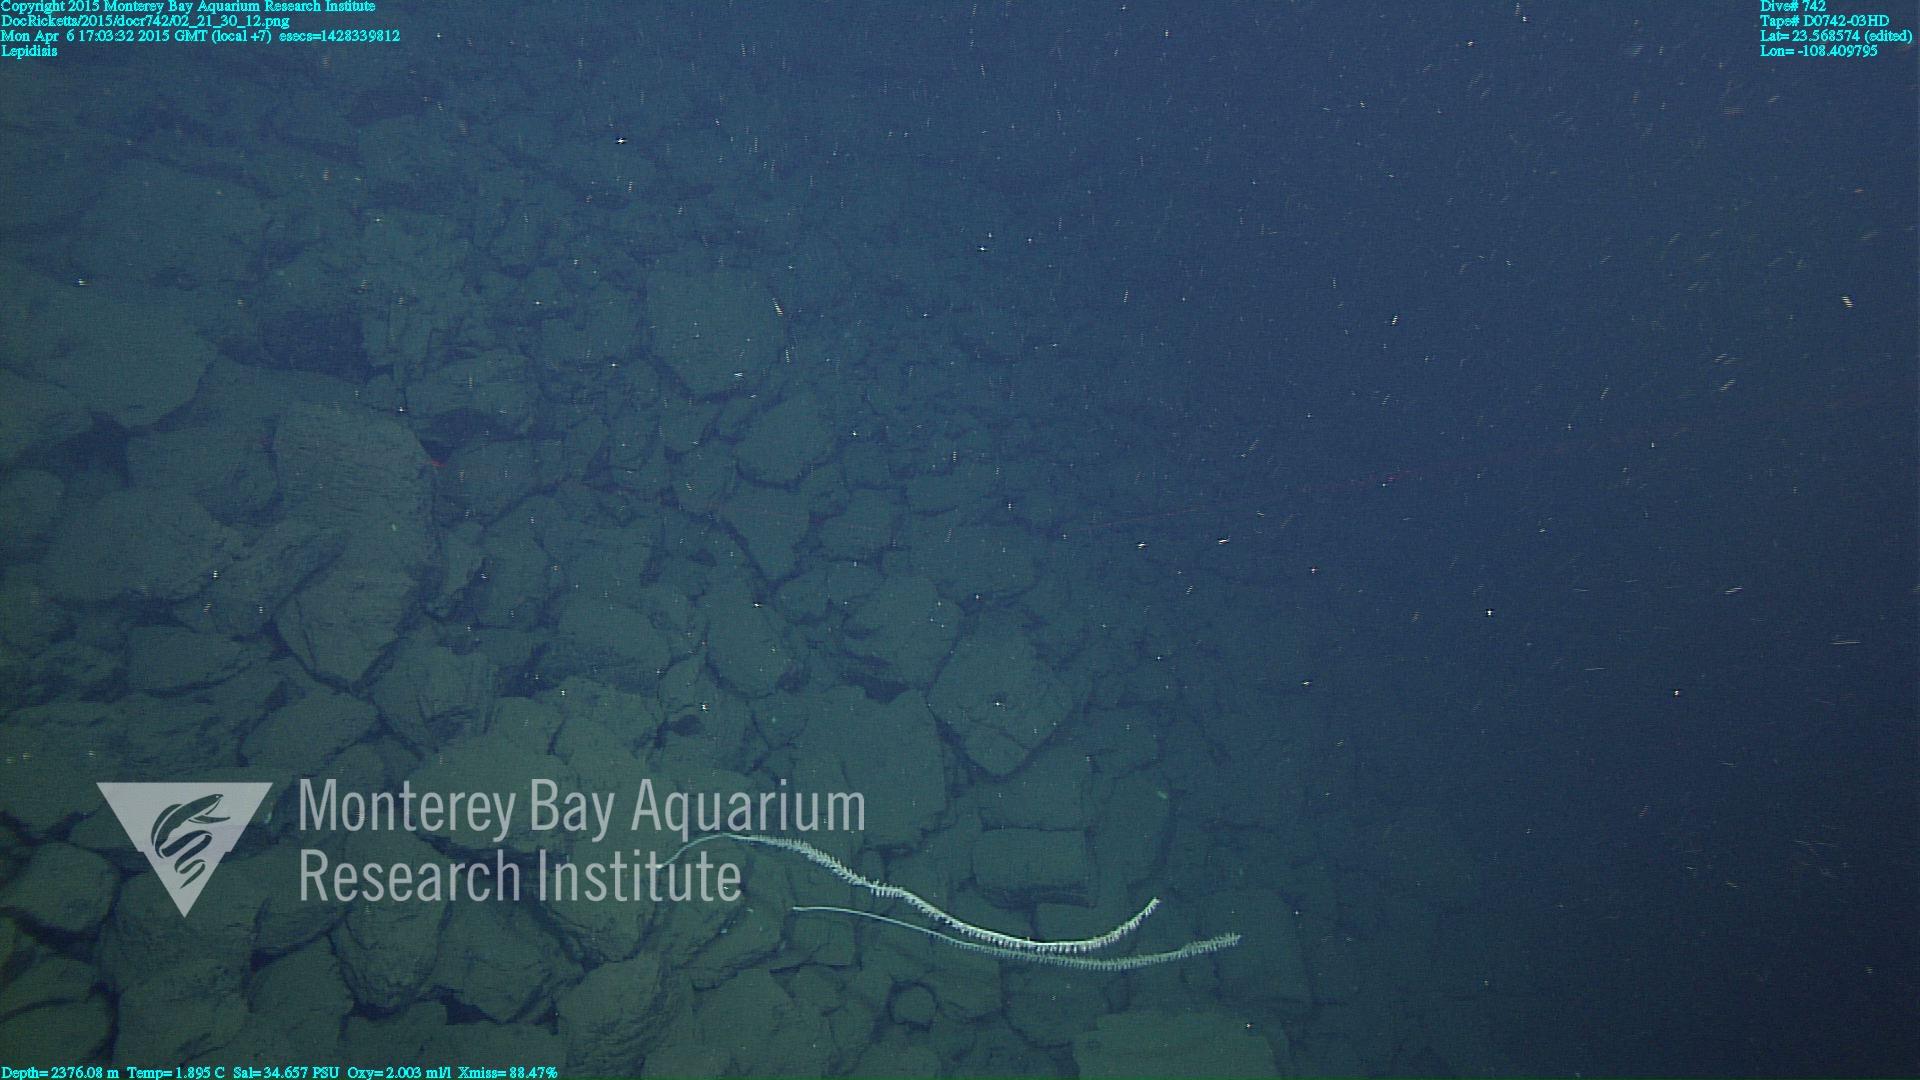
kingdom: Animalia
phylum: Cnidaria
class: Anthozoa
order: Scleralcyonacea
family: Keratoisididae
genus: Lepidisis
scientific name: Lepidisis
